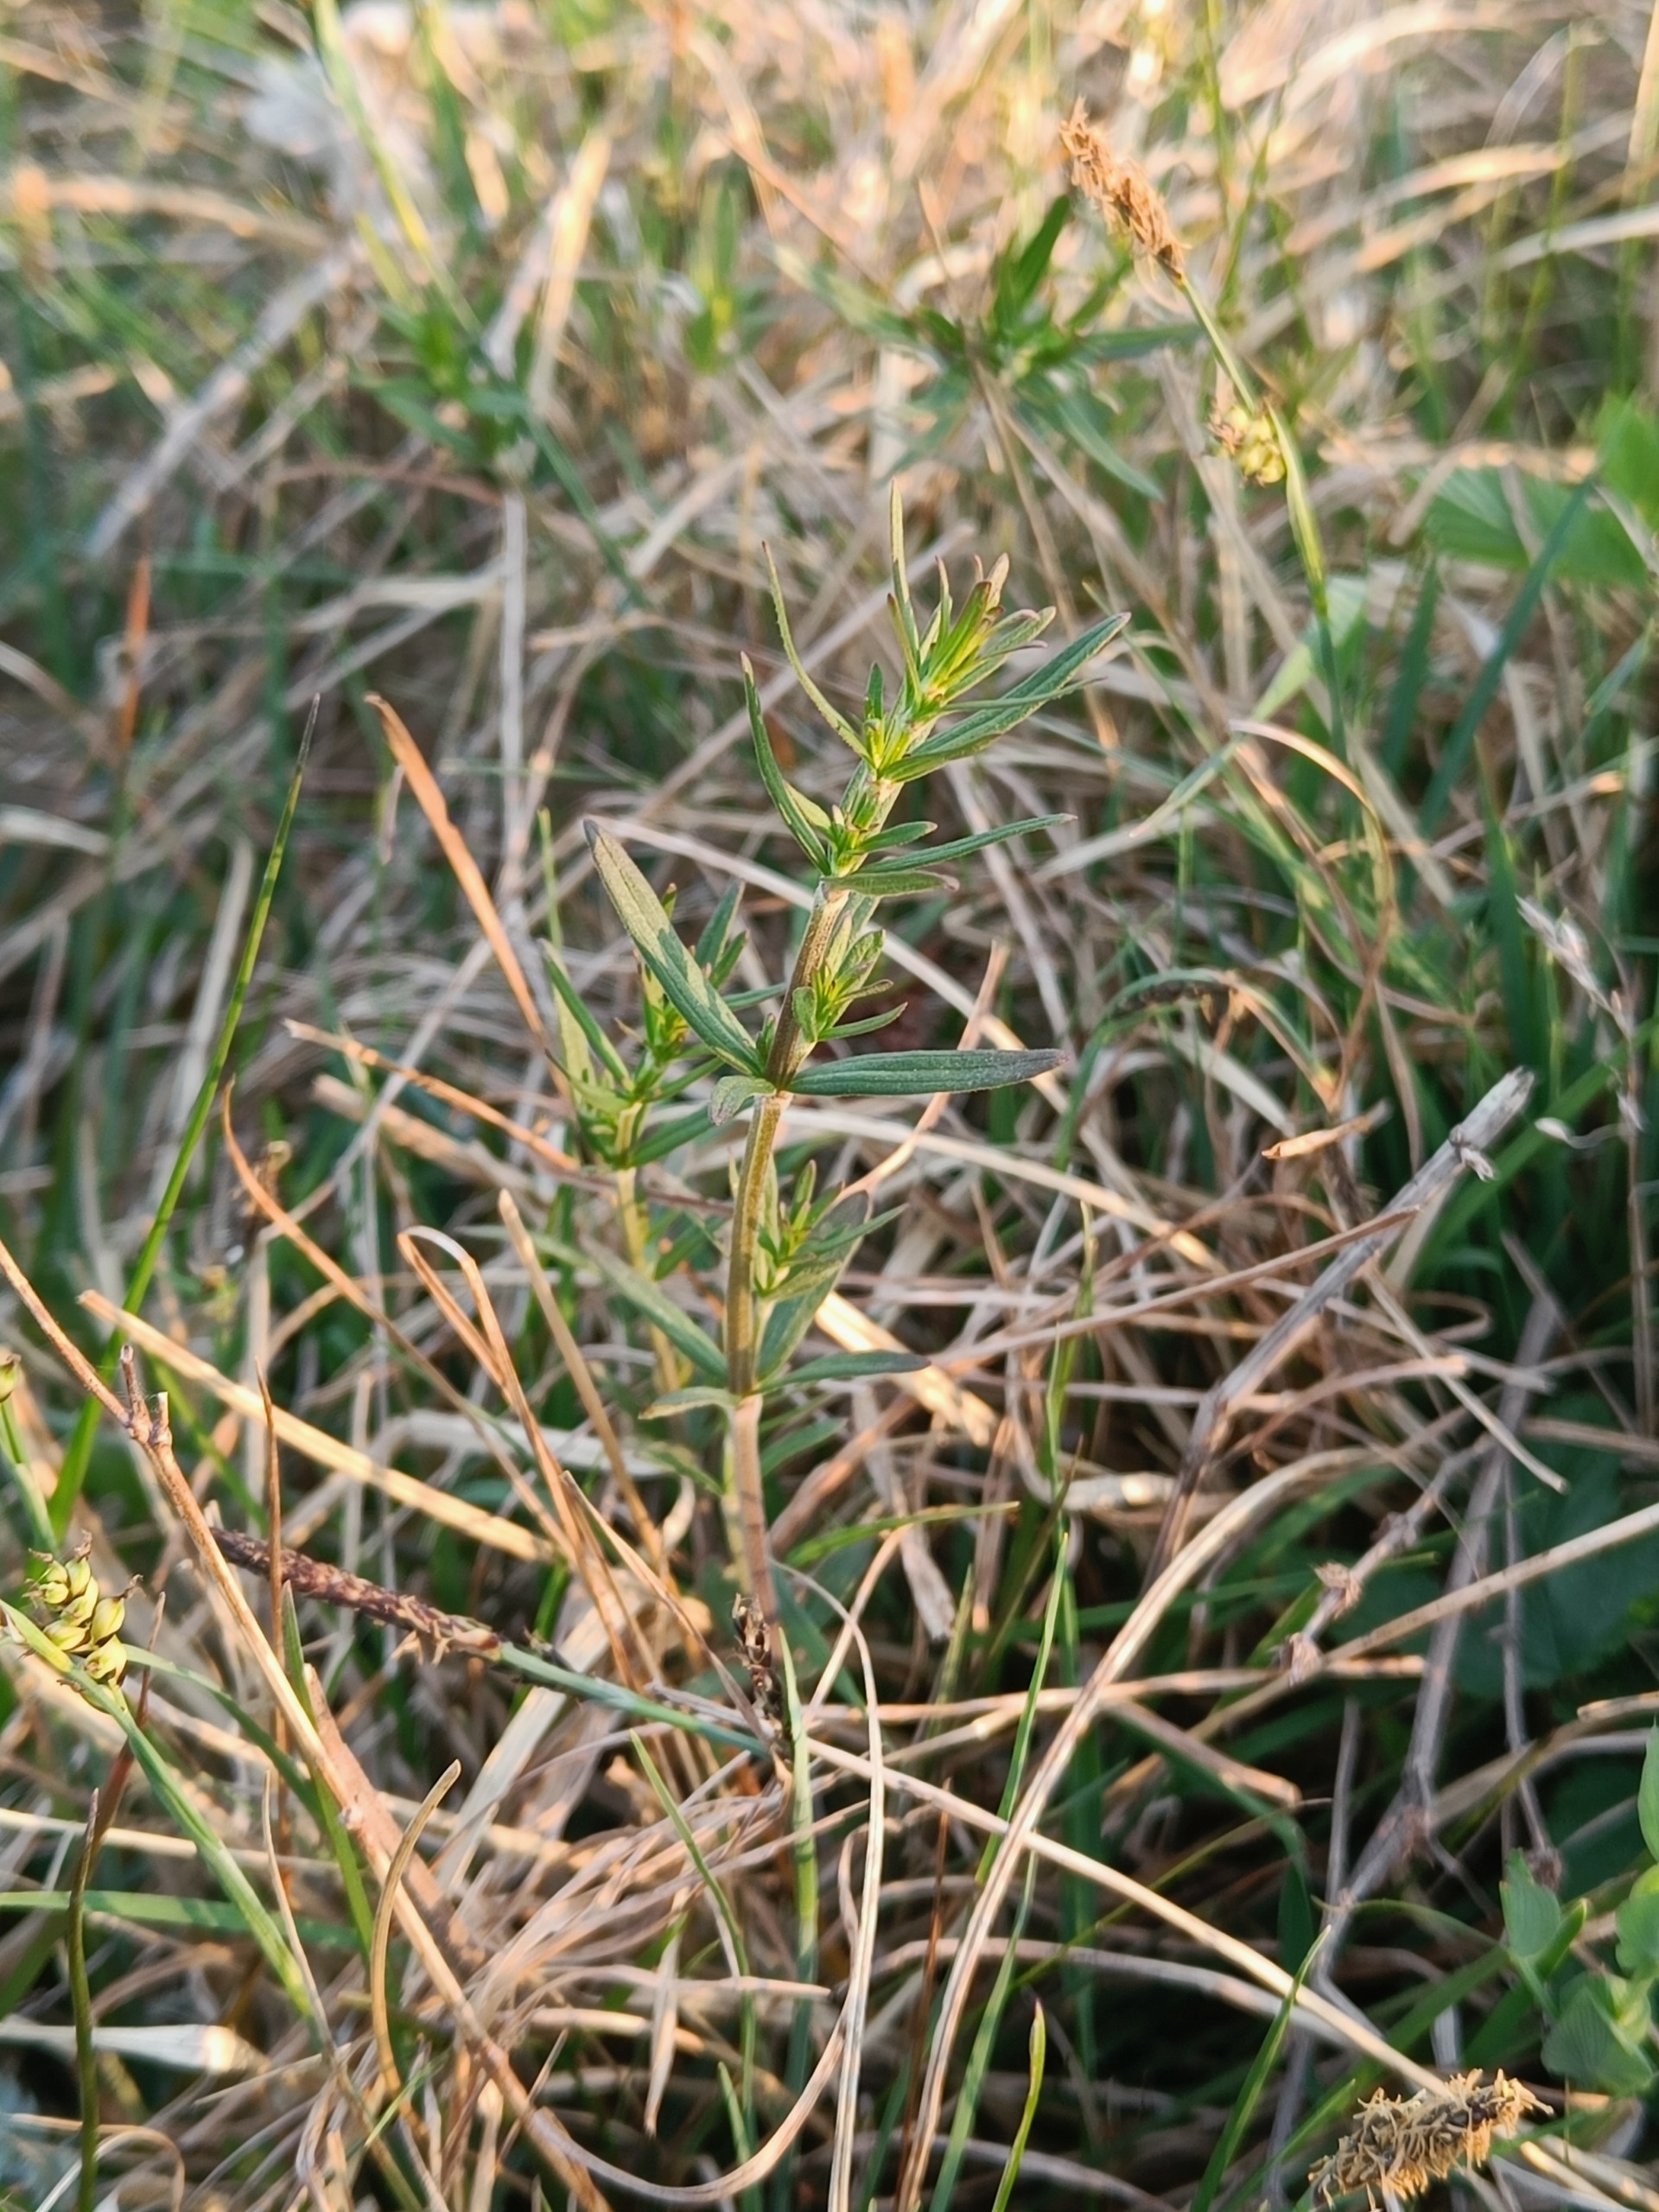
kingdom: Plantae
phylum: Tracheophyta
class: Magnoliopsida
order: Gentianales
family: Rubiaceae
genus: Galium
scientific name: Galium boreale
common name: Trenervet snerre
